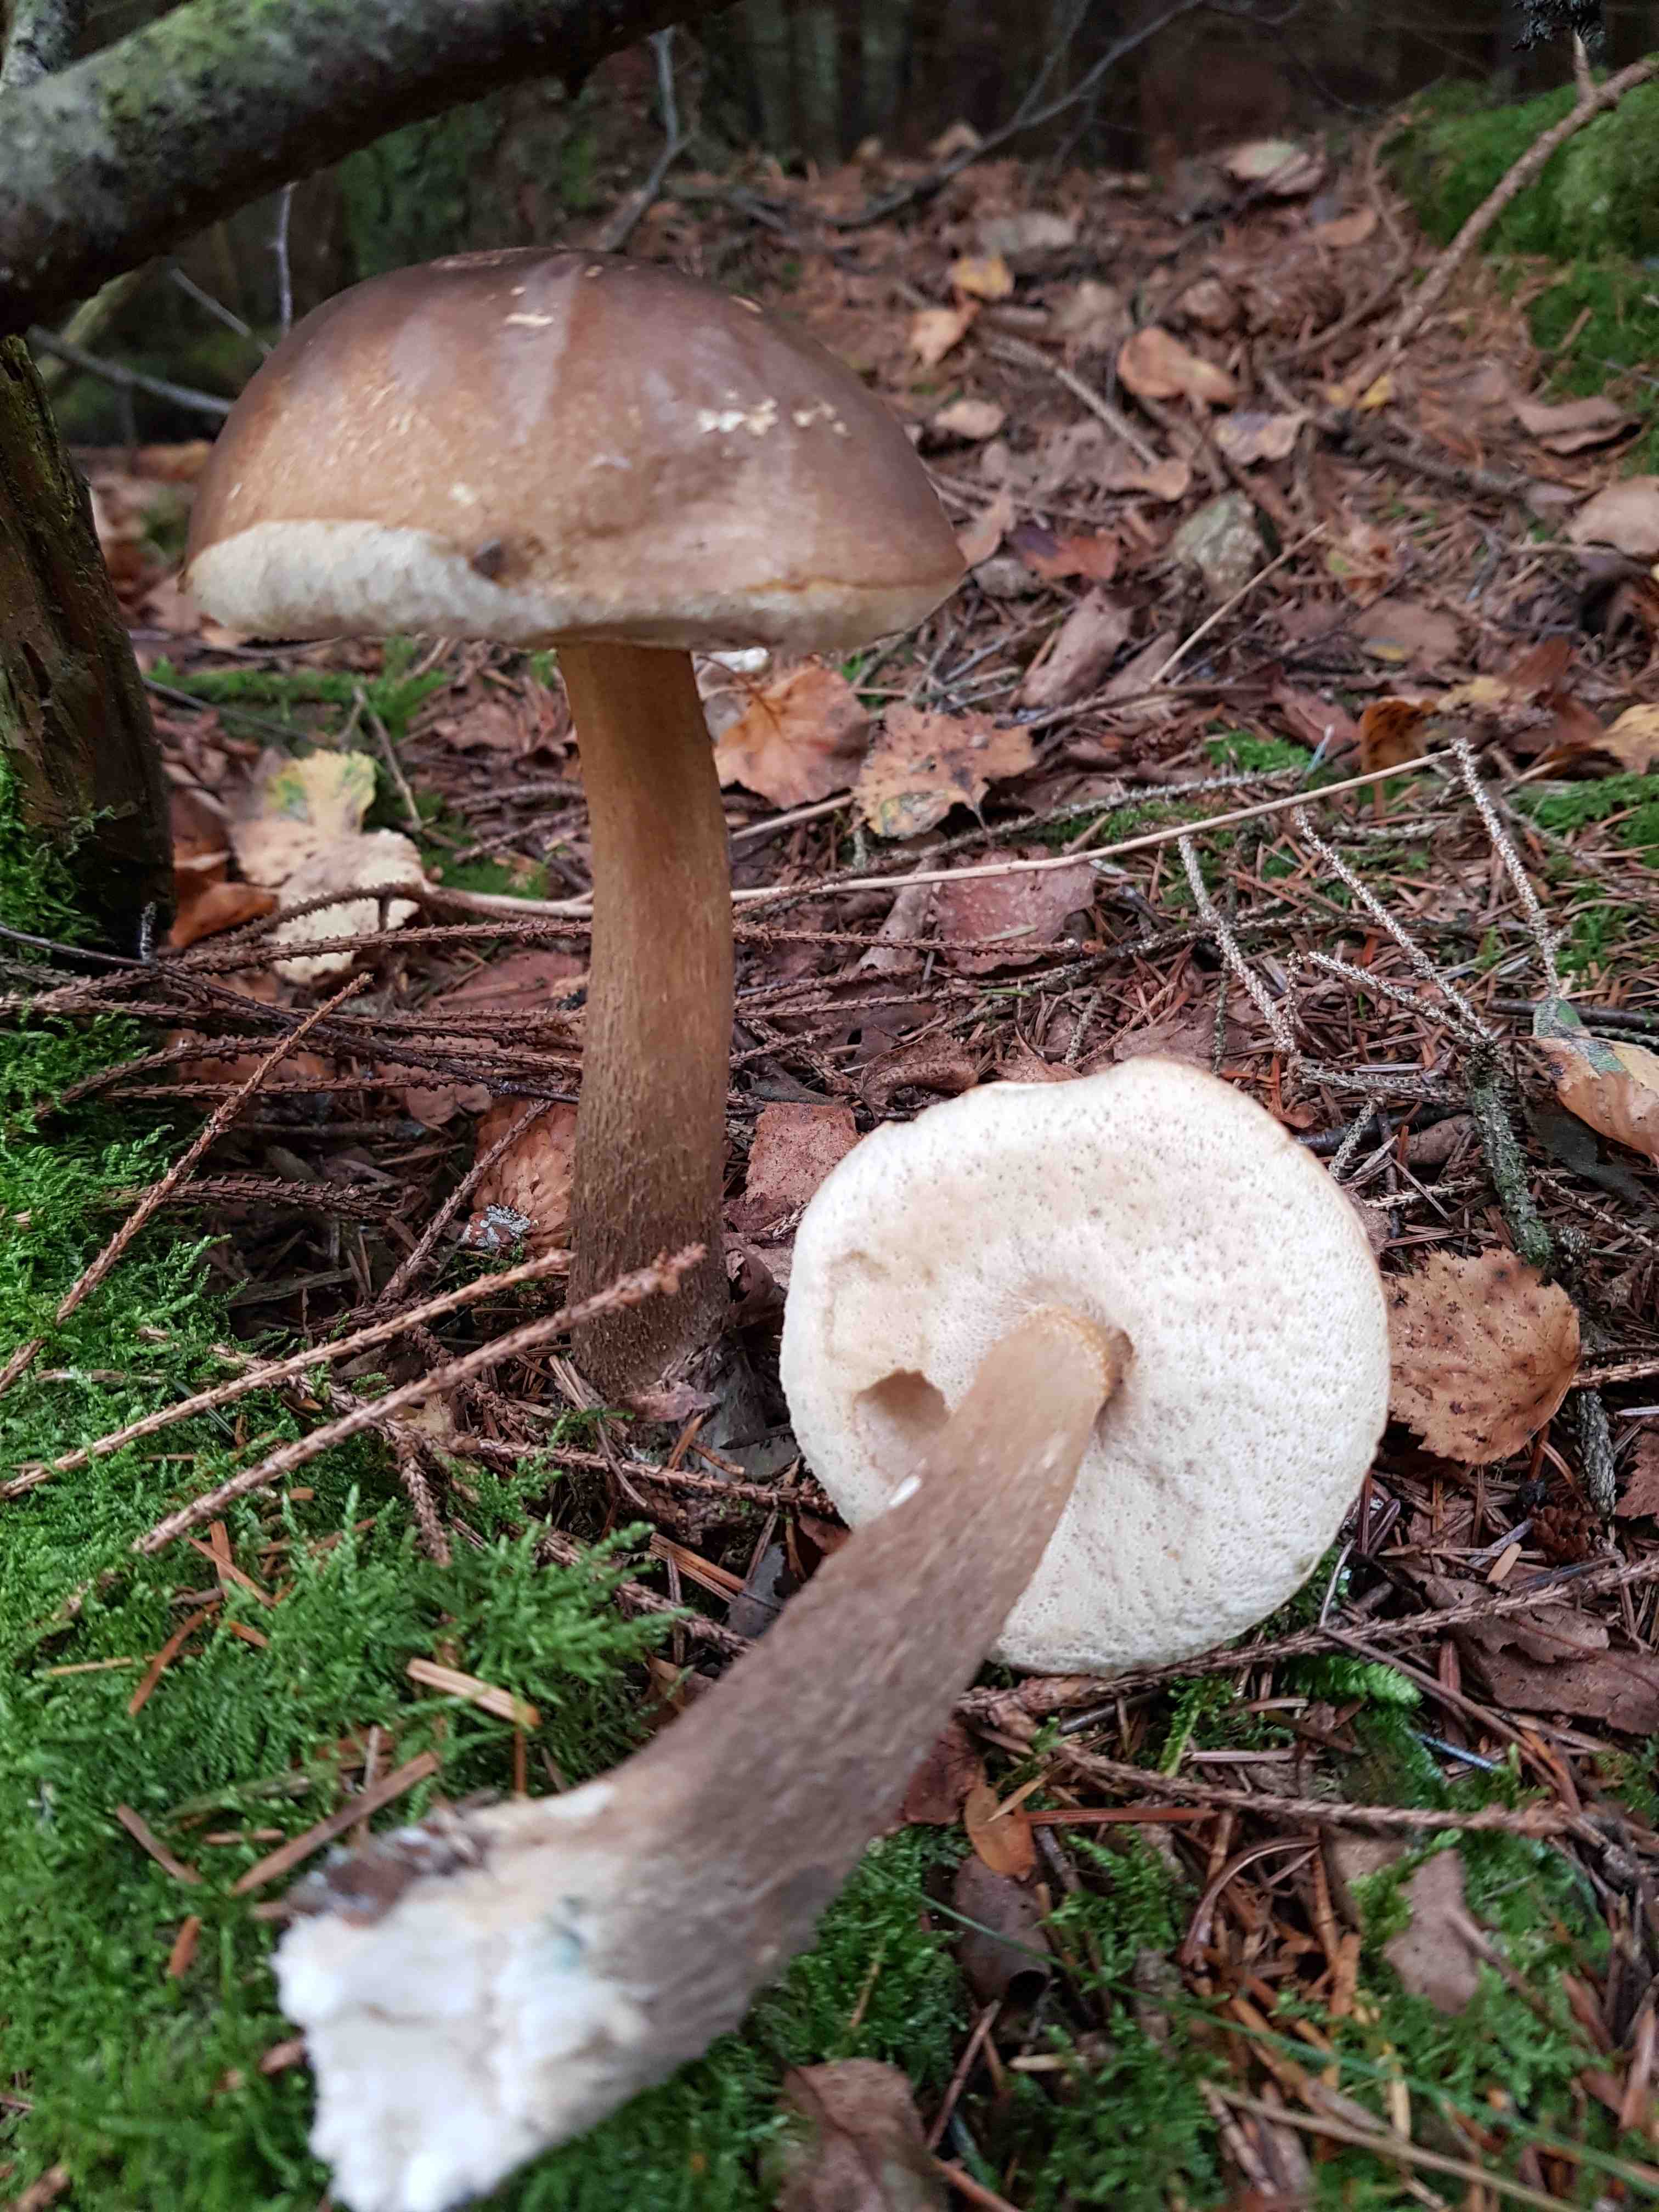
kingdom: Fungi
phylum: Basidiomycota
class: Agaricomycetes
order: Boletales
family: Boletaceae
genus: Leccinum
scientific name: Leccinum scabrum
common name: brun skælrørhat
